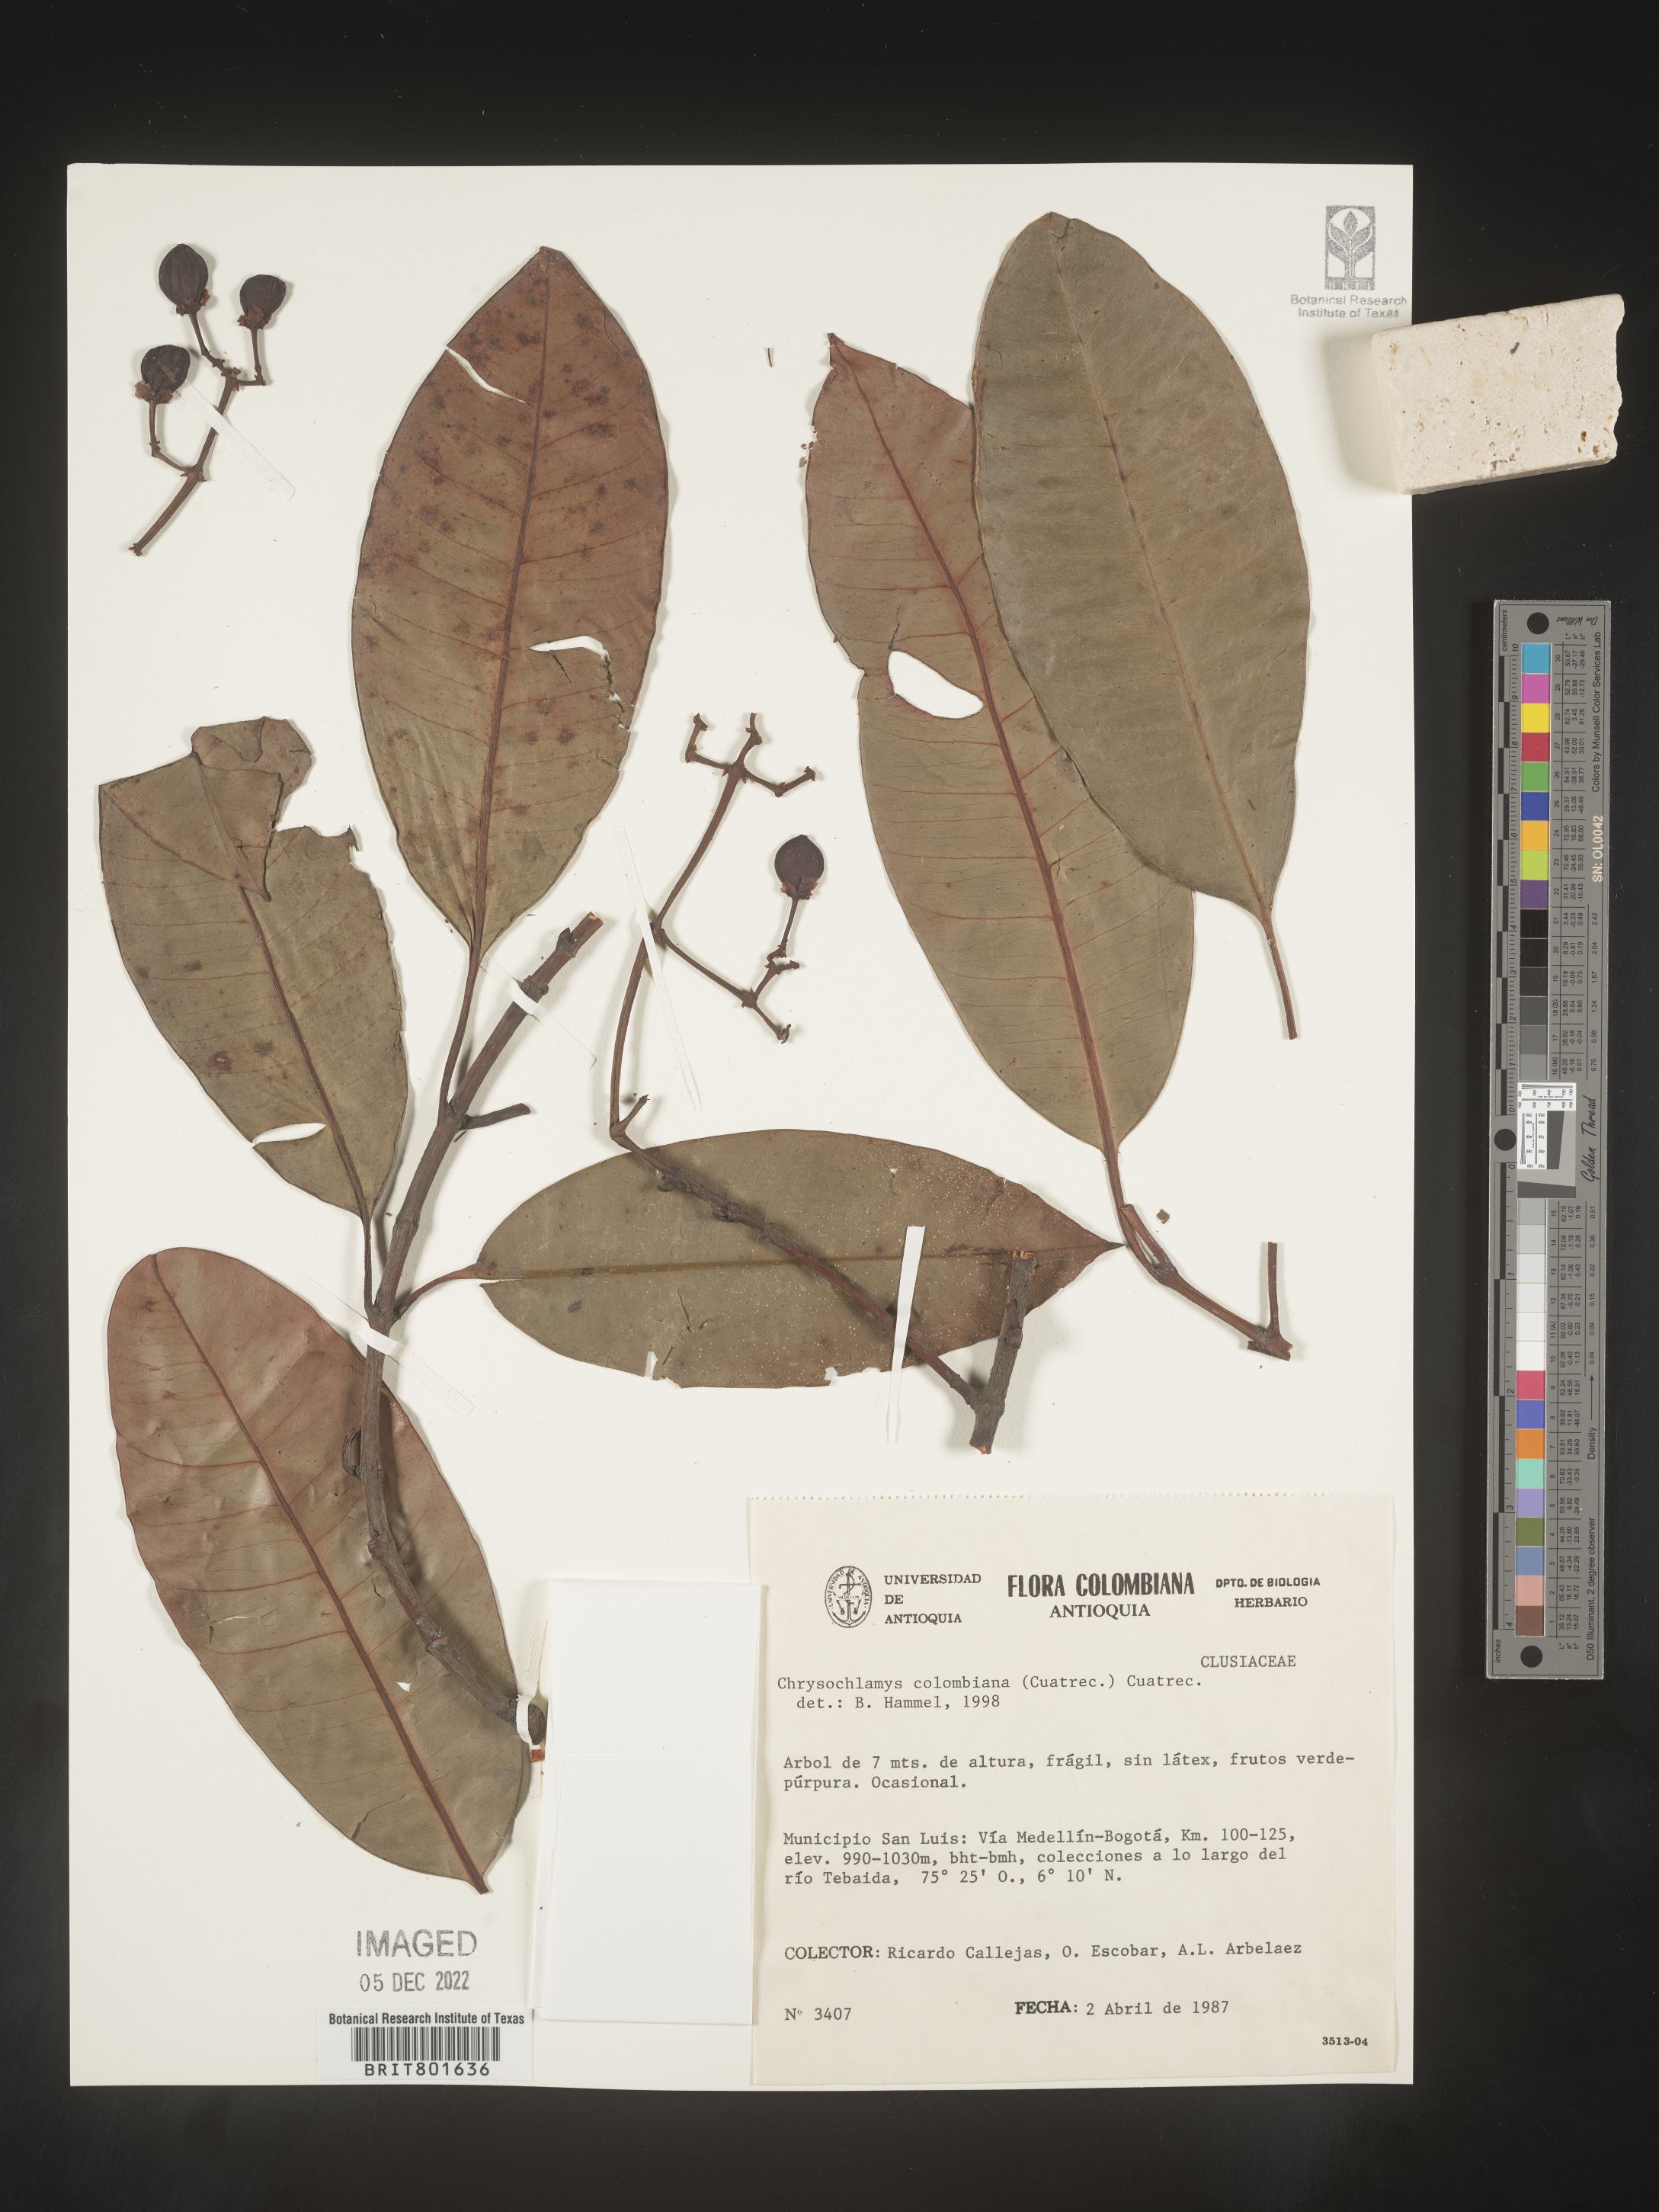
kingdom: Plantae
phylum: Tracheophyta
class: Magnoliopsida
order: Malpighiales
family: Clusiaceae
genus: Chrysochlamys
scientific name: Chrysochlamys
